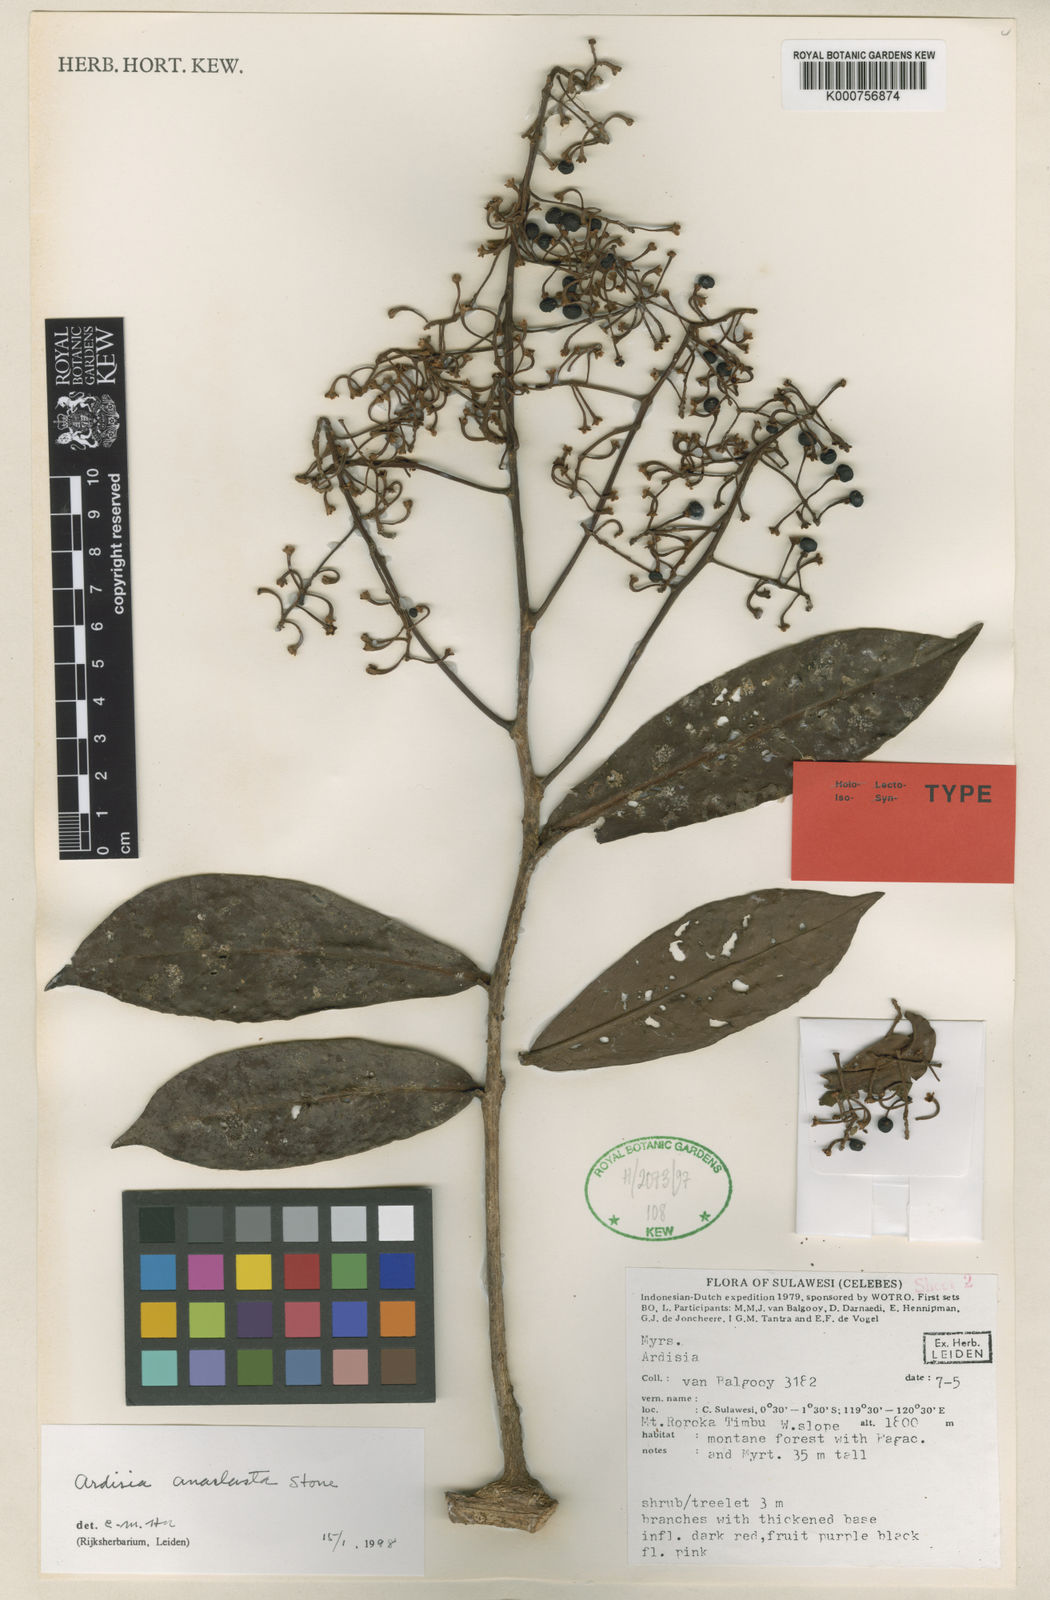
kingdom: Plantae
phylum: Tracheophyta
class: Magnoliopsida
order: Ericales
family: Primulaceae
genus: Ardisia
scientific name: Ardisia anaclasta
